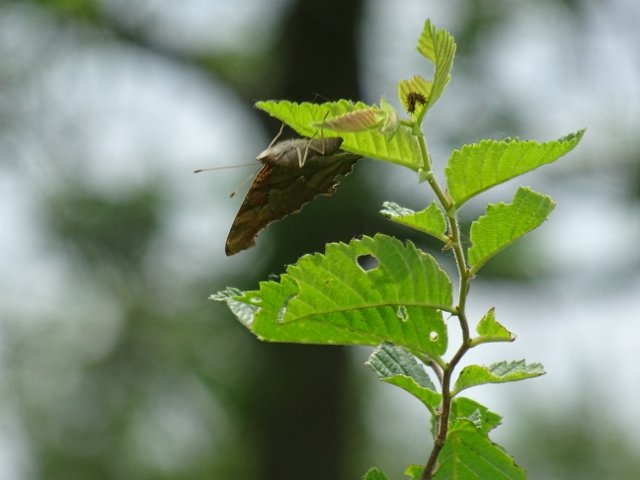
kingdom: Animalia
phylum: Arthropoda
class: Insecta
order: Lepidoptera
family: Nymphalidae
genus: Polygonia
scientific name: Polygonia interrogationis
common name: Question Mark
